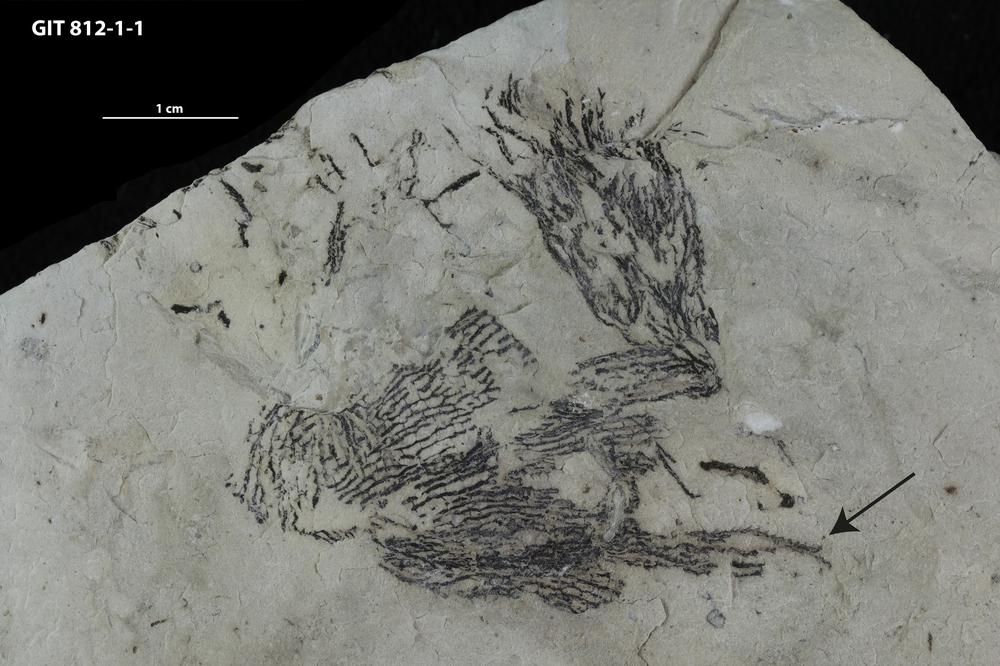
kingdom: Animalia
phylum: Hemichordata
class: Pterobranchia
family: Dendrograptidae
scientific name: Dendrograptidae
